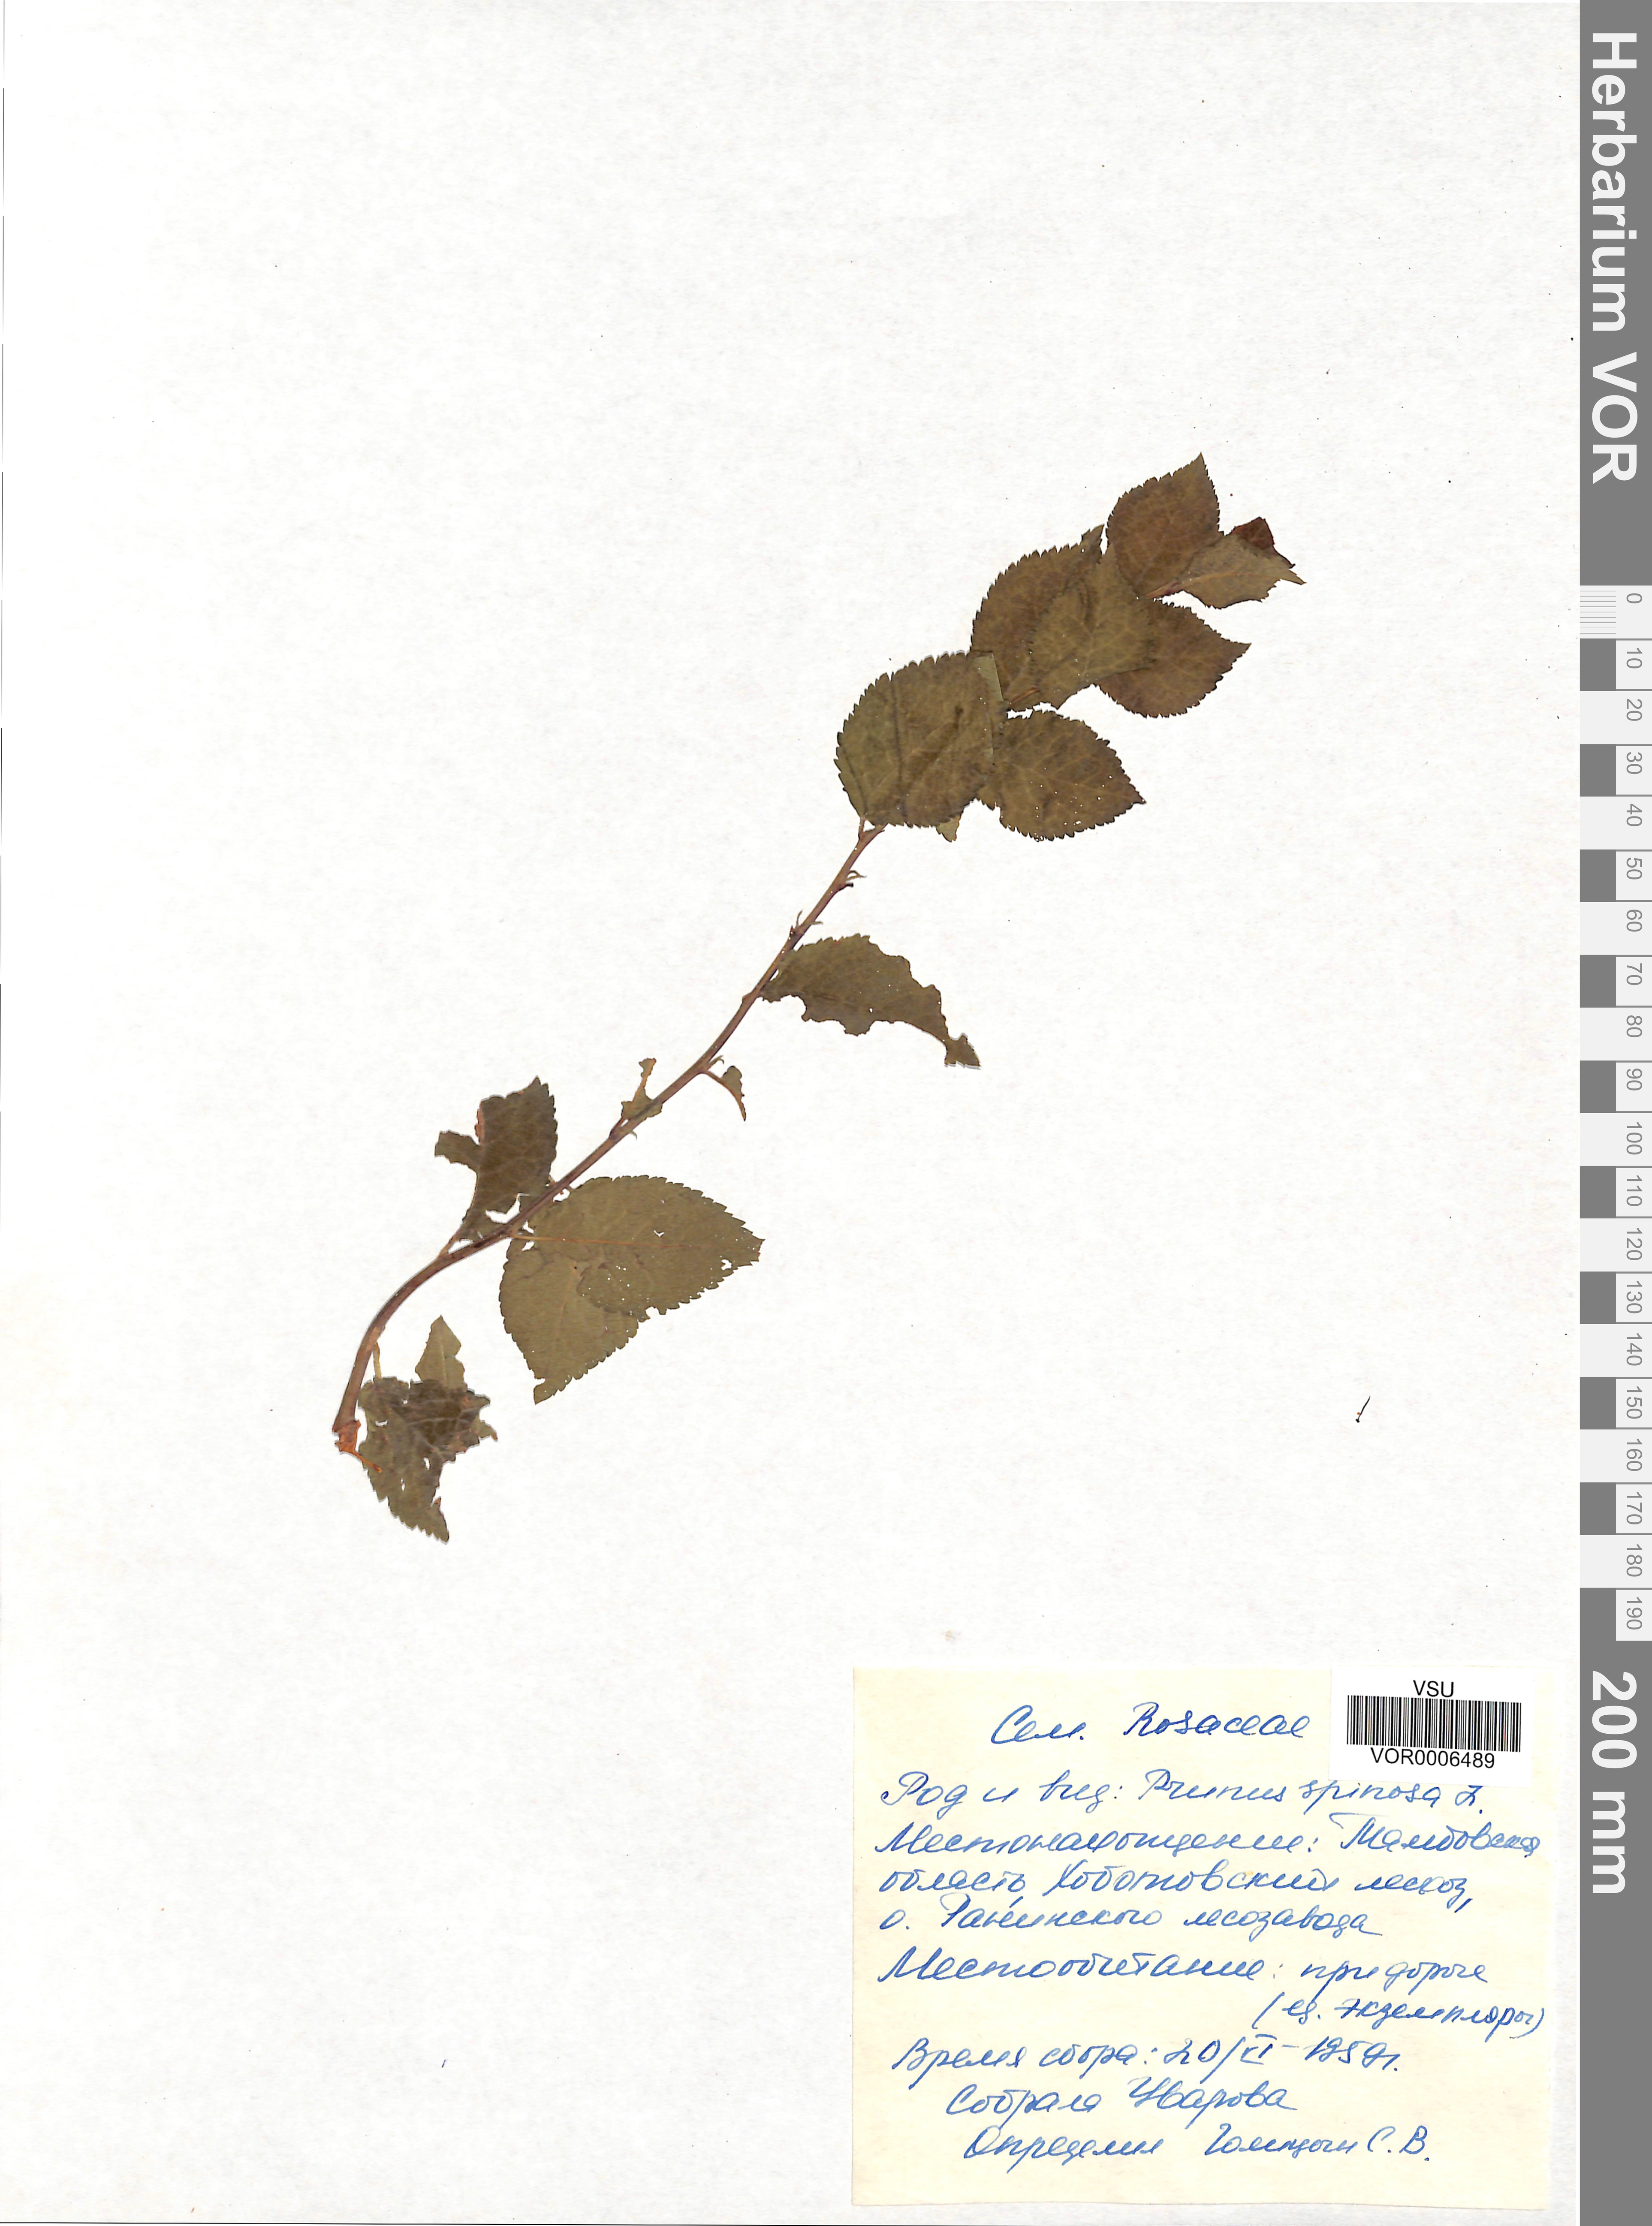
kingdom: Plantae
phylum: Tracheophyta
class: Magnoliopsida
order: Rosales
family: Rosaceae
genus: Prunus
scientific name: Prunus spinosa
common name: Blackthorn
